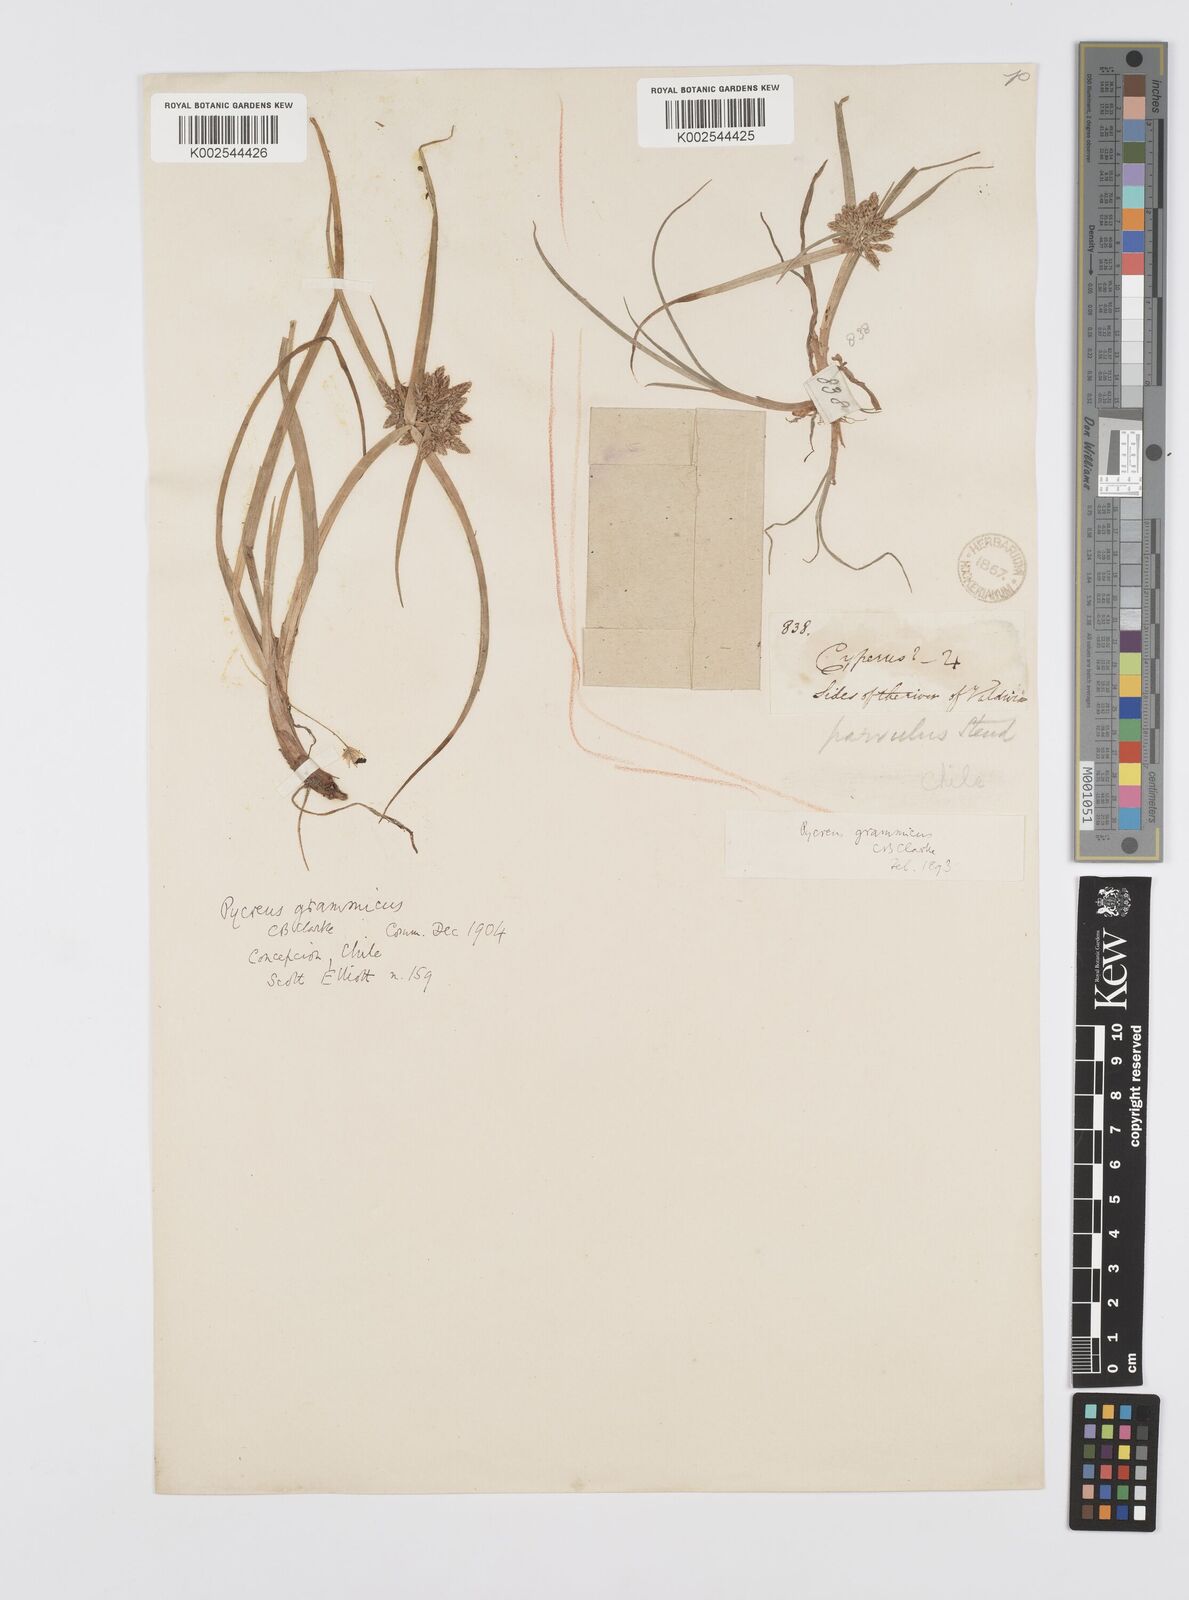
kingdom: Plantae
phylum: Tracheophyta
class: Liliopsida
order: Poales
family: Cyperaceae
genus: Cyperus
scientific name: Cyperus grammicus
